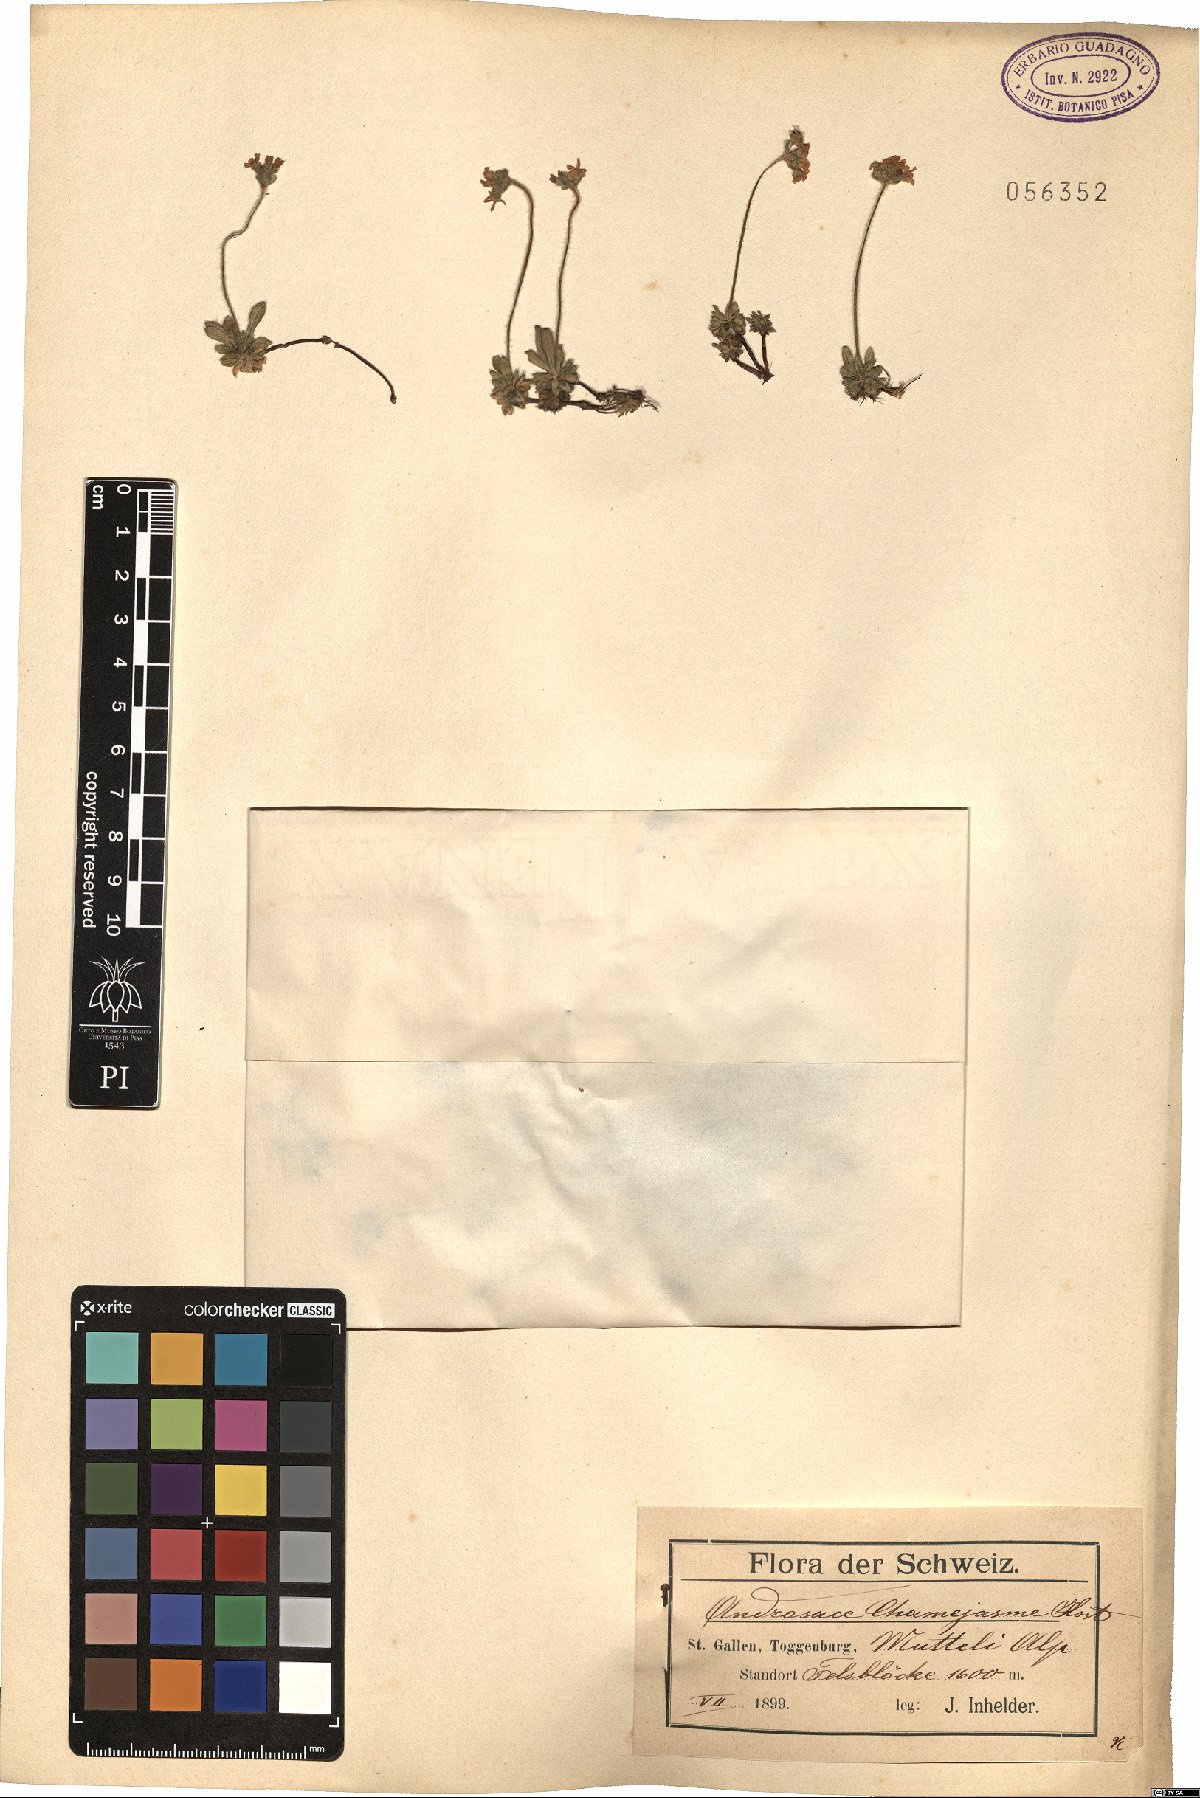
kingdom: Plantae
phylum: Tracheophyta
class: Magnoliopsida
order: Ericales
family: Primulaceae
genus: Androsace
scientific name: Androsace chamaejasme
